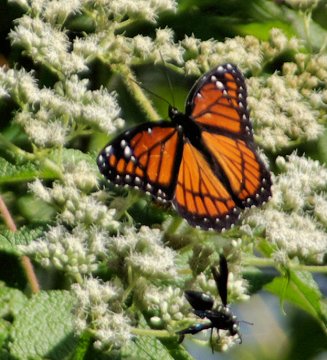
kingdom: Animalia
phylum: Arthropoda
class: Insecta
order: Lepidoptera
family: Nymphalidae
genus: Limenitis
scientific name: Limenitis archippus
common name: Viceroy
